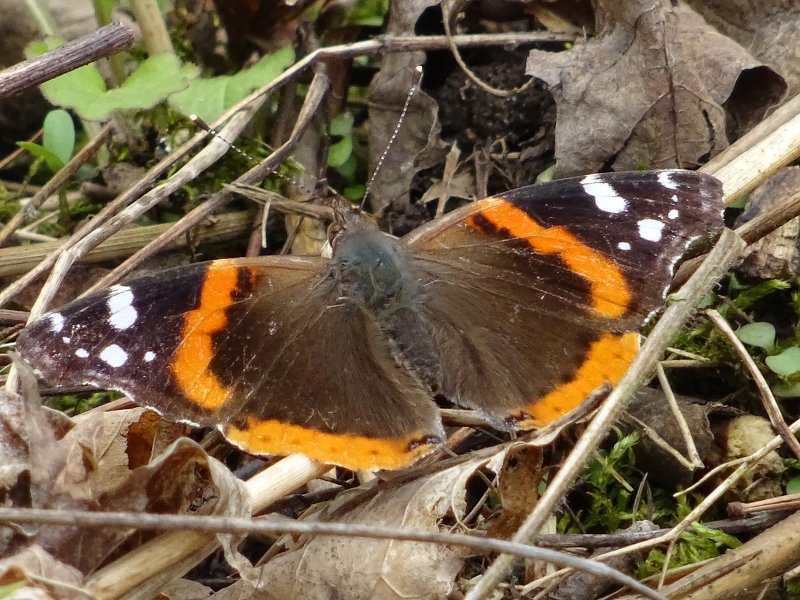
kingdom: Animalia
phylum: Arthropoda
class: Insecta
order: Lepidoptera
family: Nymphalidae
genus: Vanessa
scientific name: Vanessa atalanta
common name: Red Admiral
